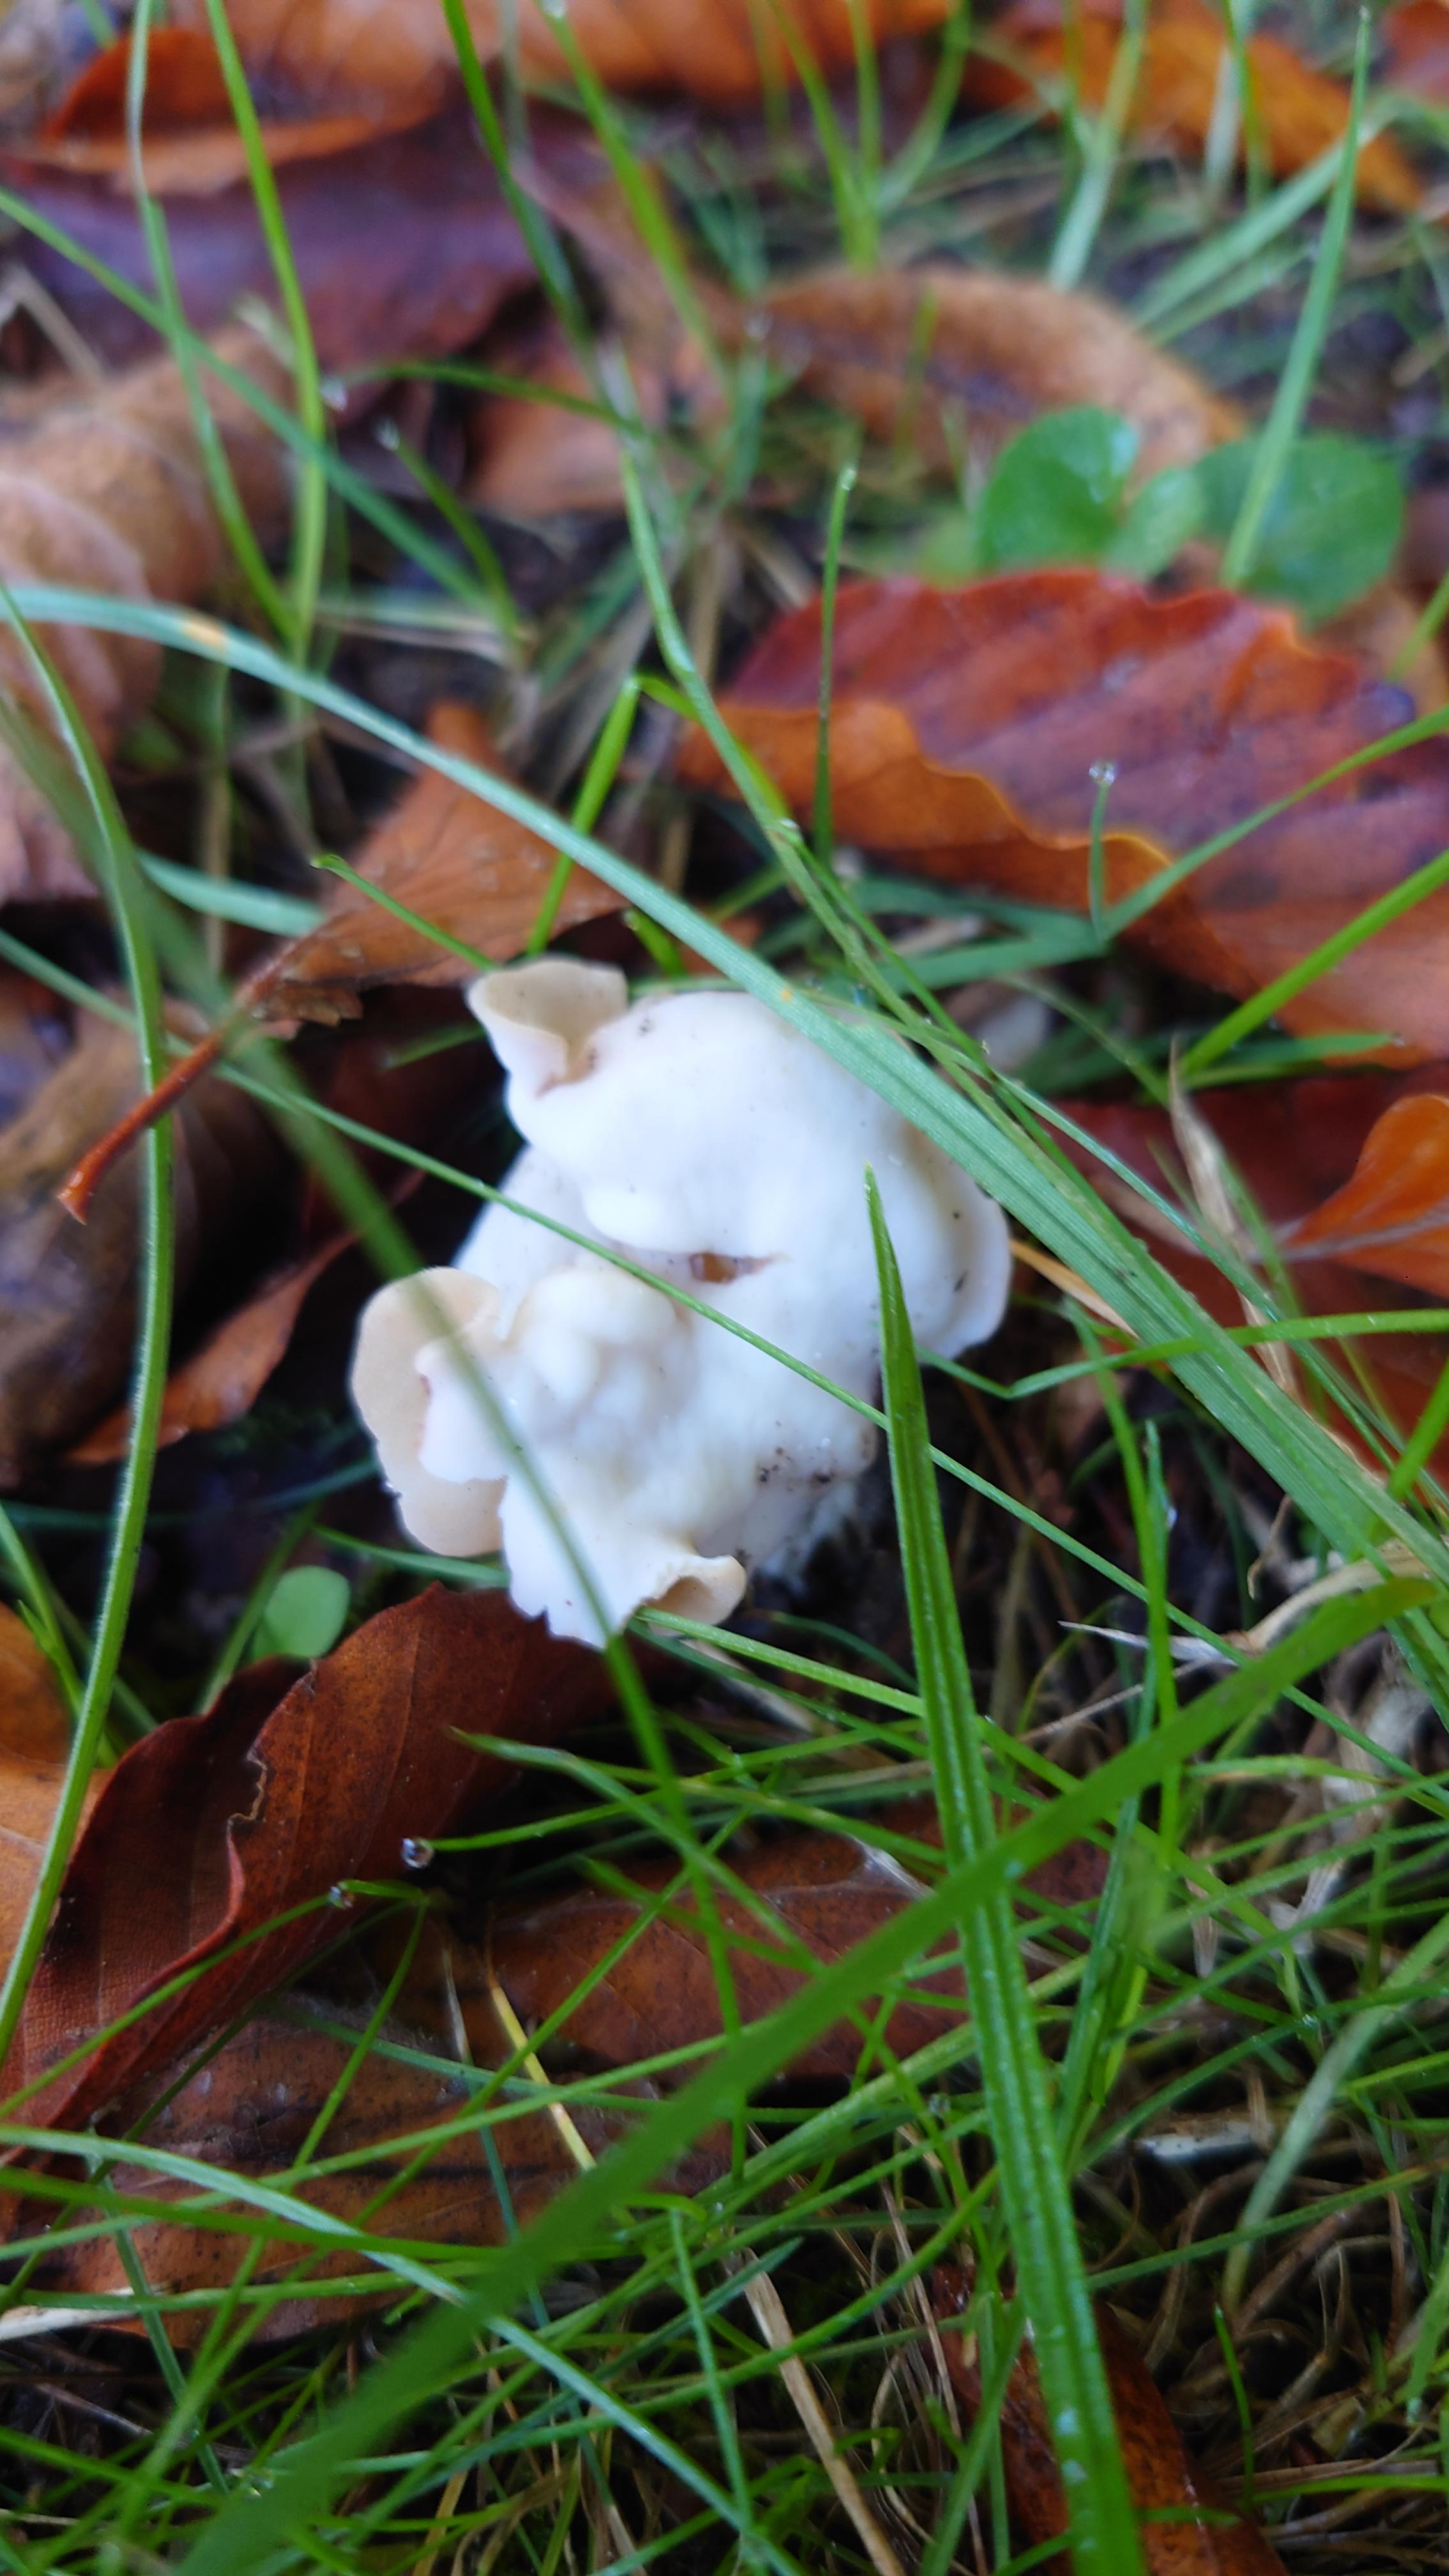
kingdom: Fungi
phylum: Ascomycota
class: Pezizomycetes
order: Pezizales
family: Helvellaceae
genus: Helvella
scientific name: Helvella crispa
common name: kruset foldhat
